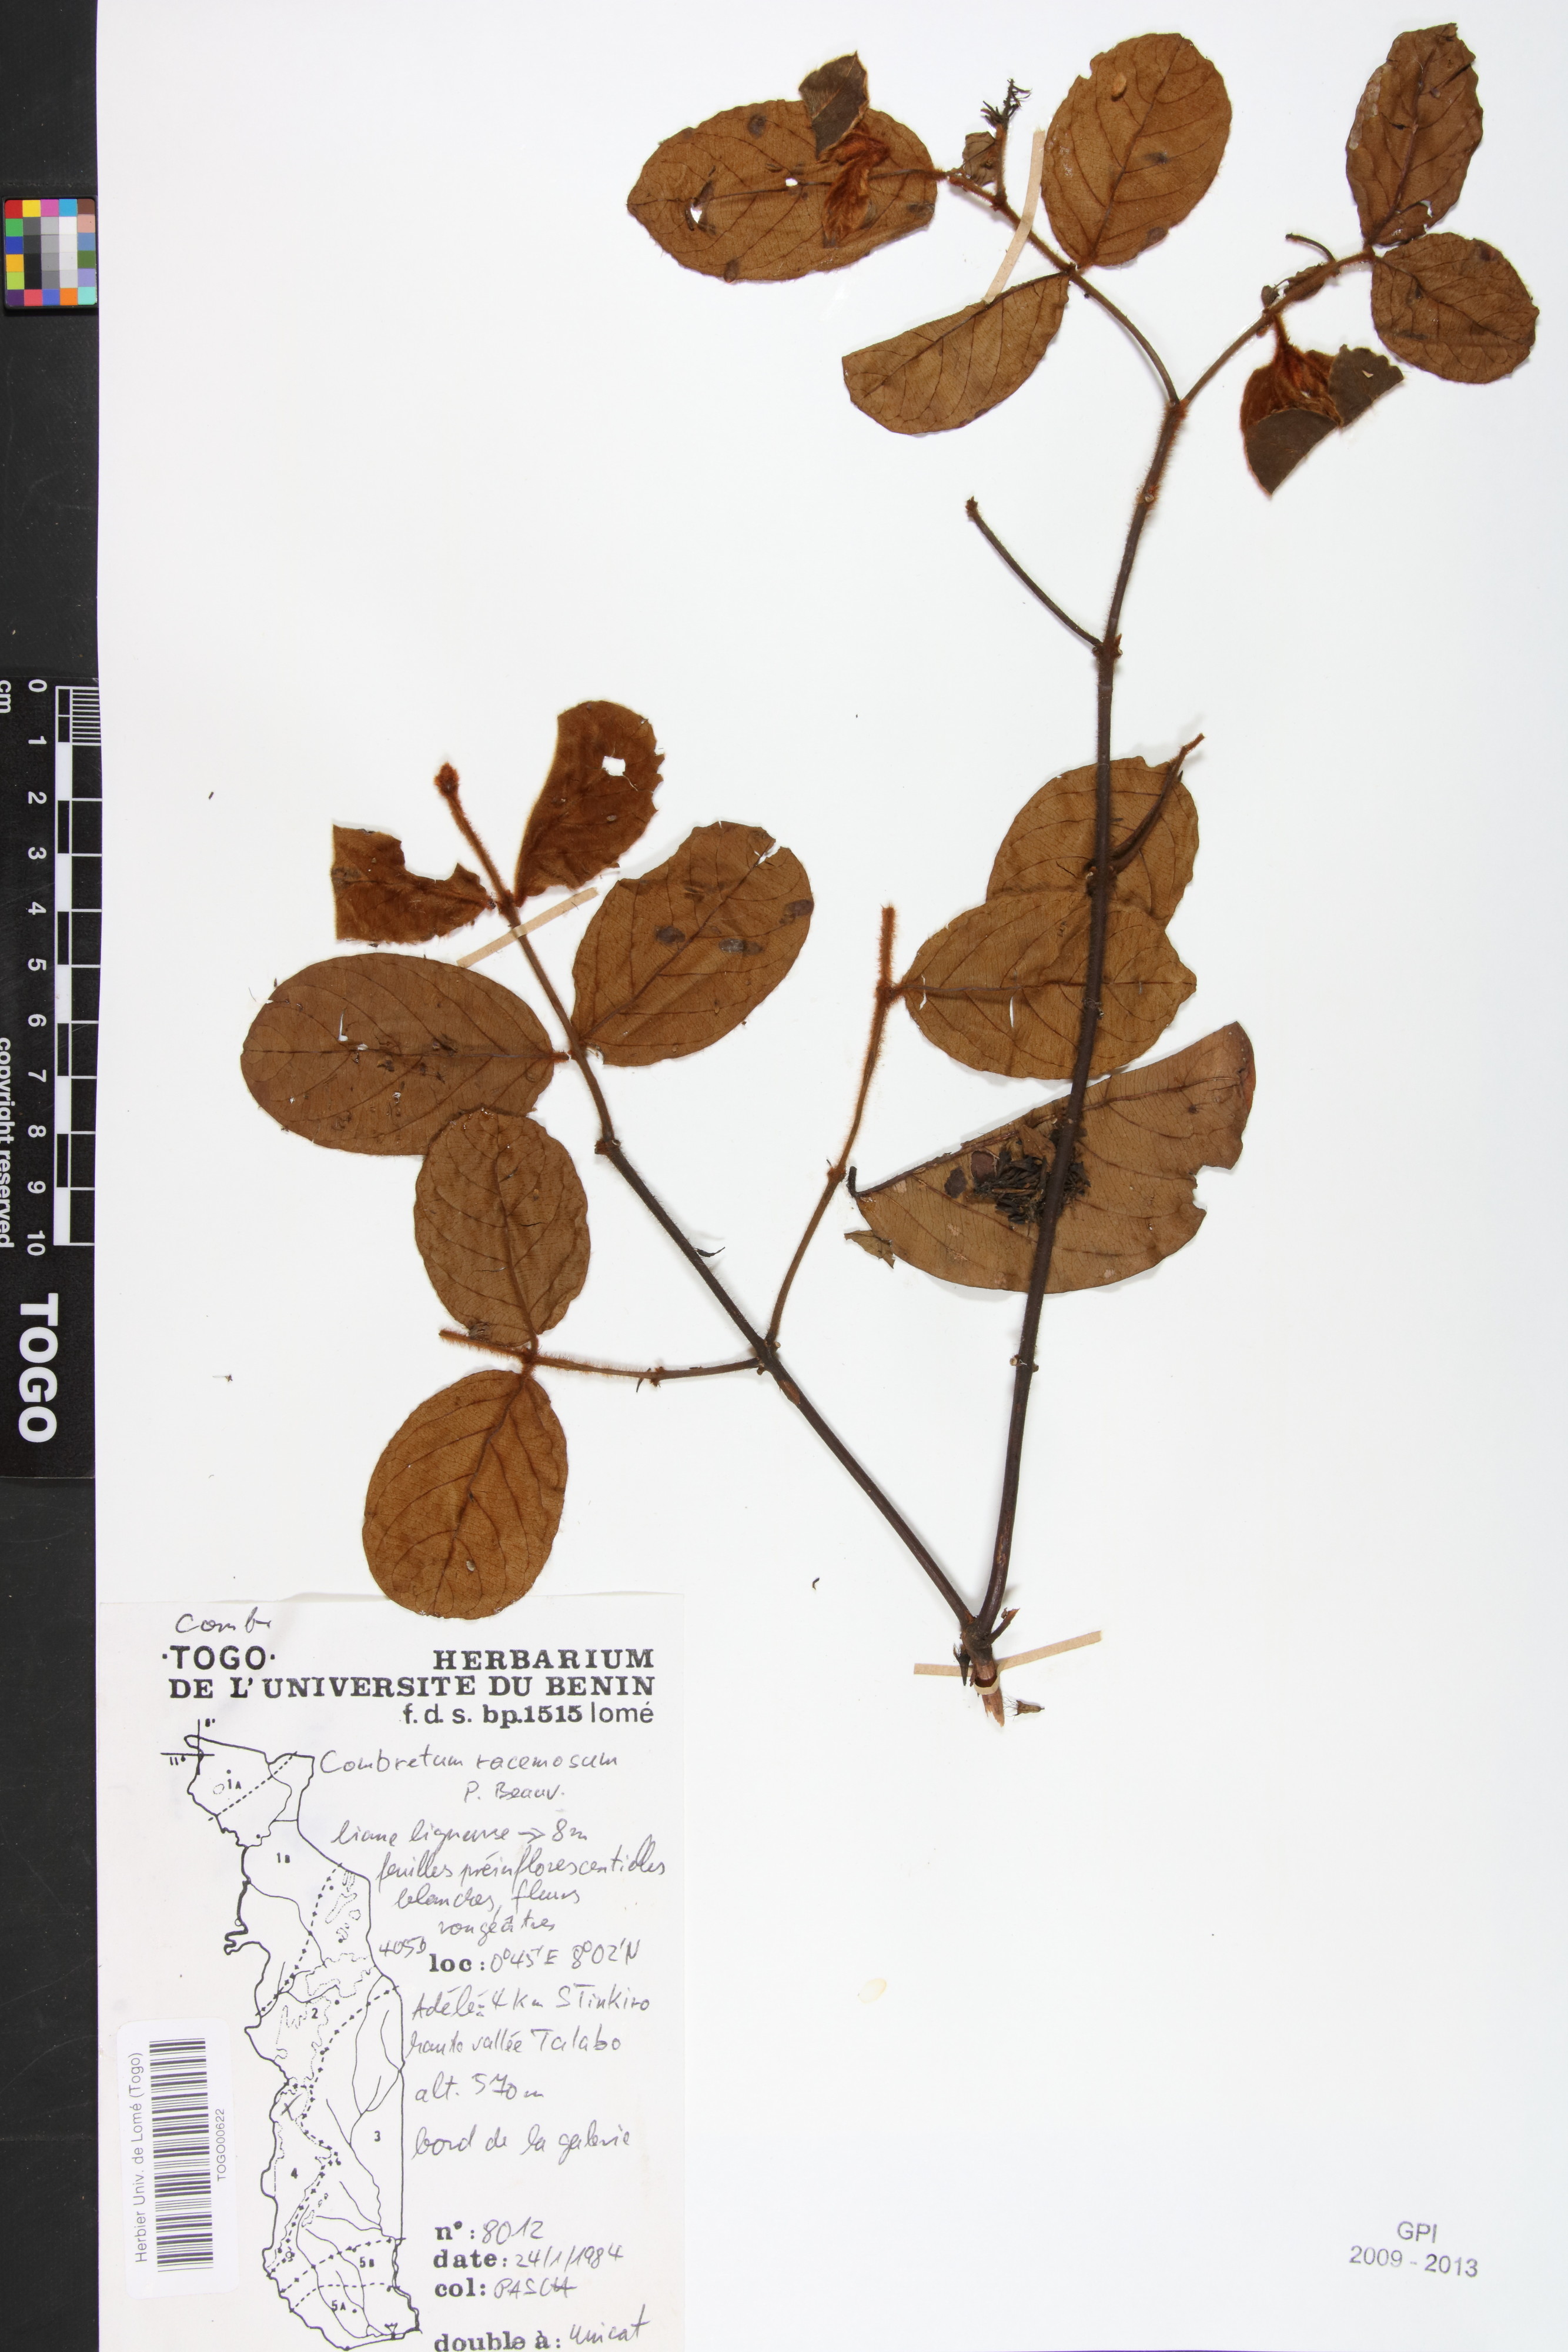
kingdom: Plantae
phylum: Tracheophyta
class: Magnoliopsida
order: Myrtales
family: Combretaceae
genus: Combretum
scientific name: Combretum racemosum
